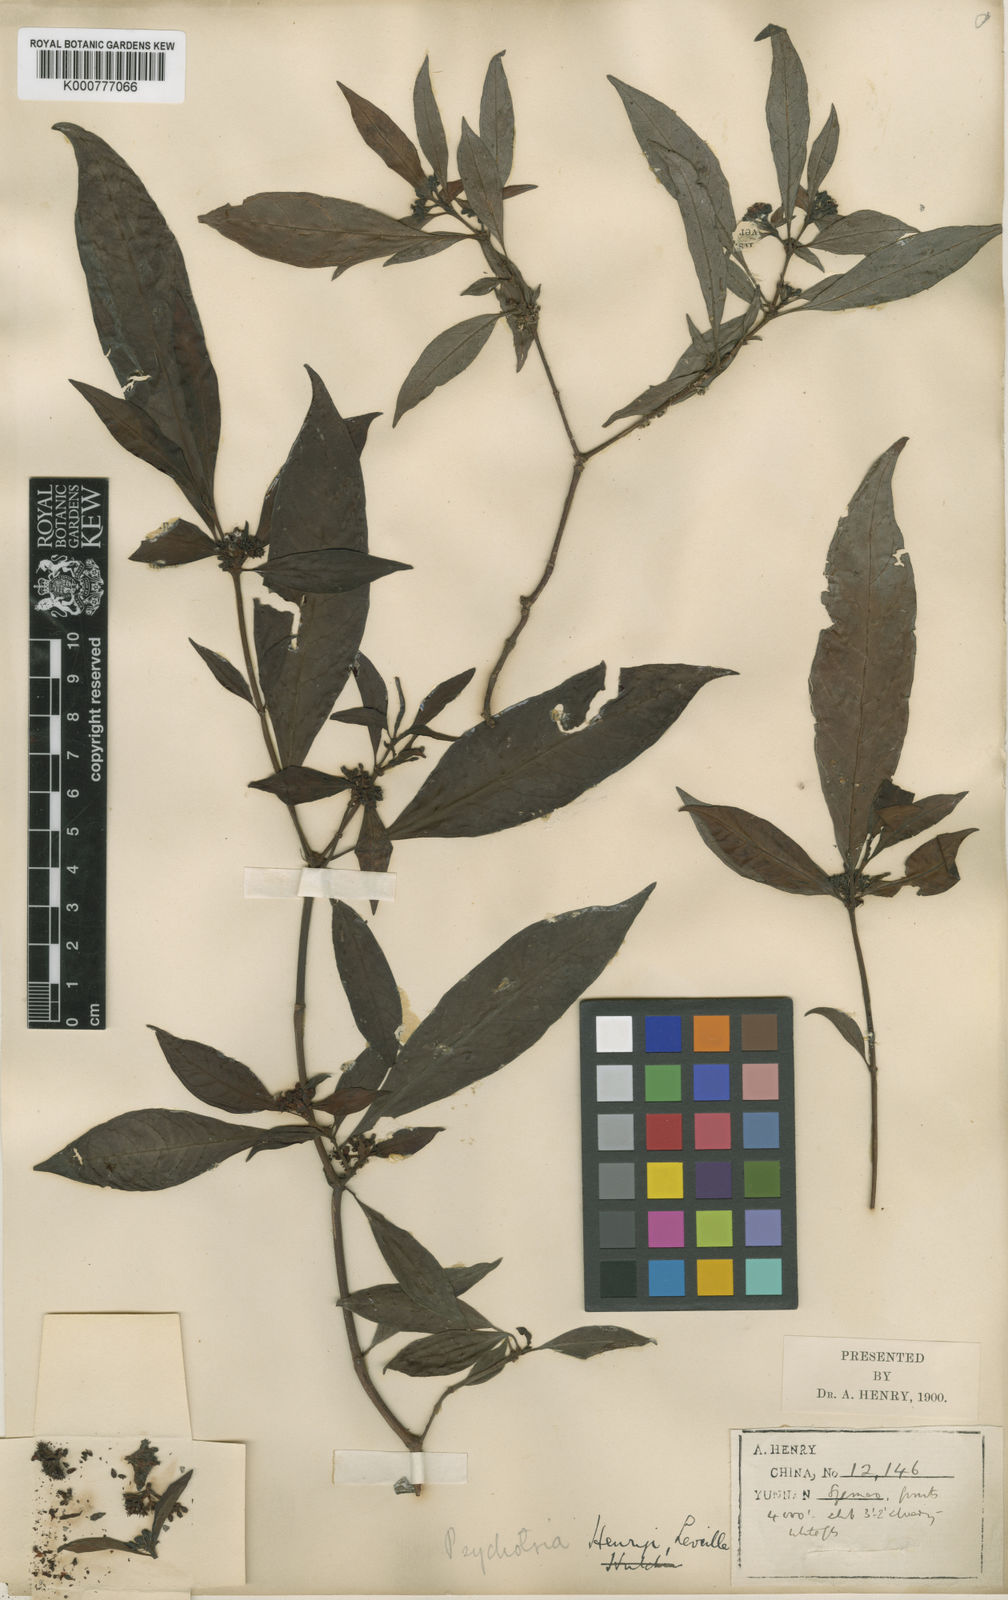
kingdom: Plantae
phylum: Tracheophyta
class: Magnoliopsida
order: Gentianales
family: Rubiaceae
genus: Psychotria
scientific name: Psychotria
